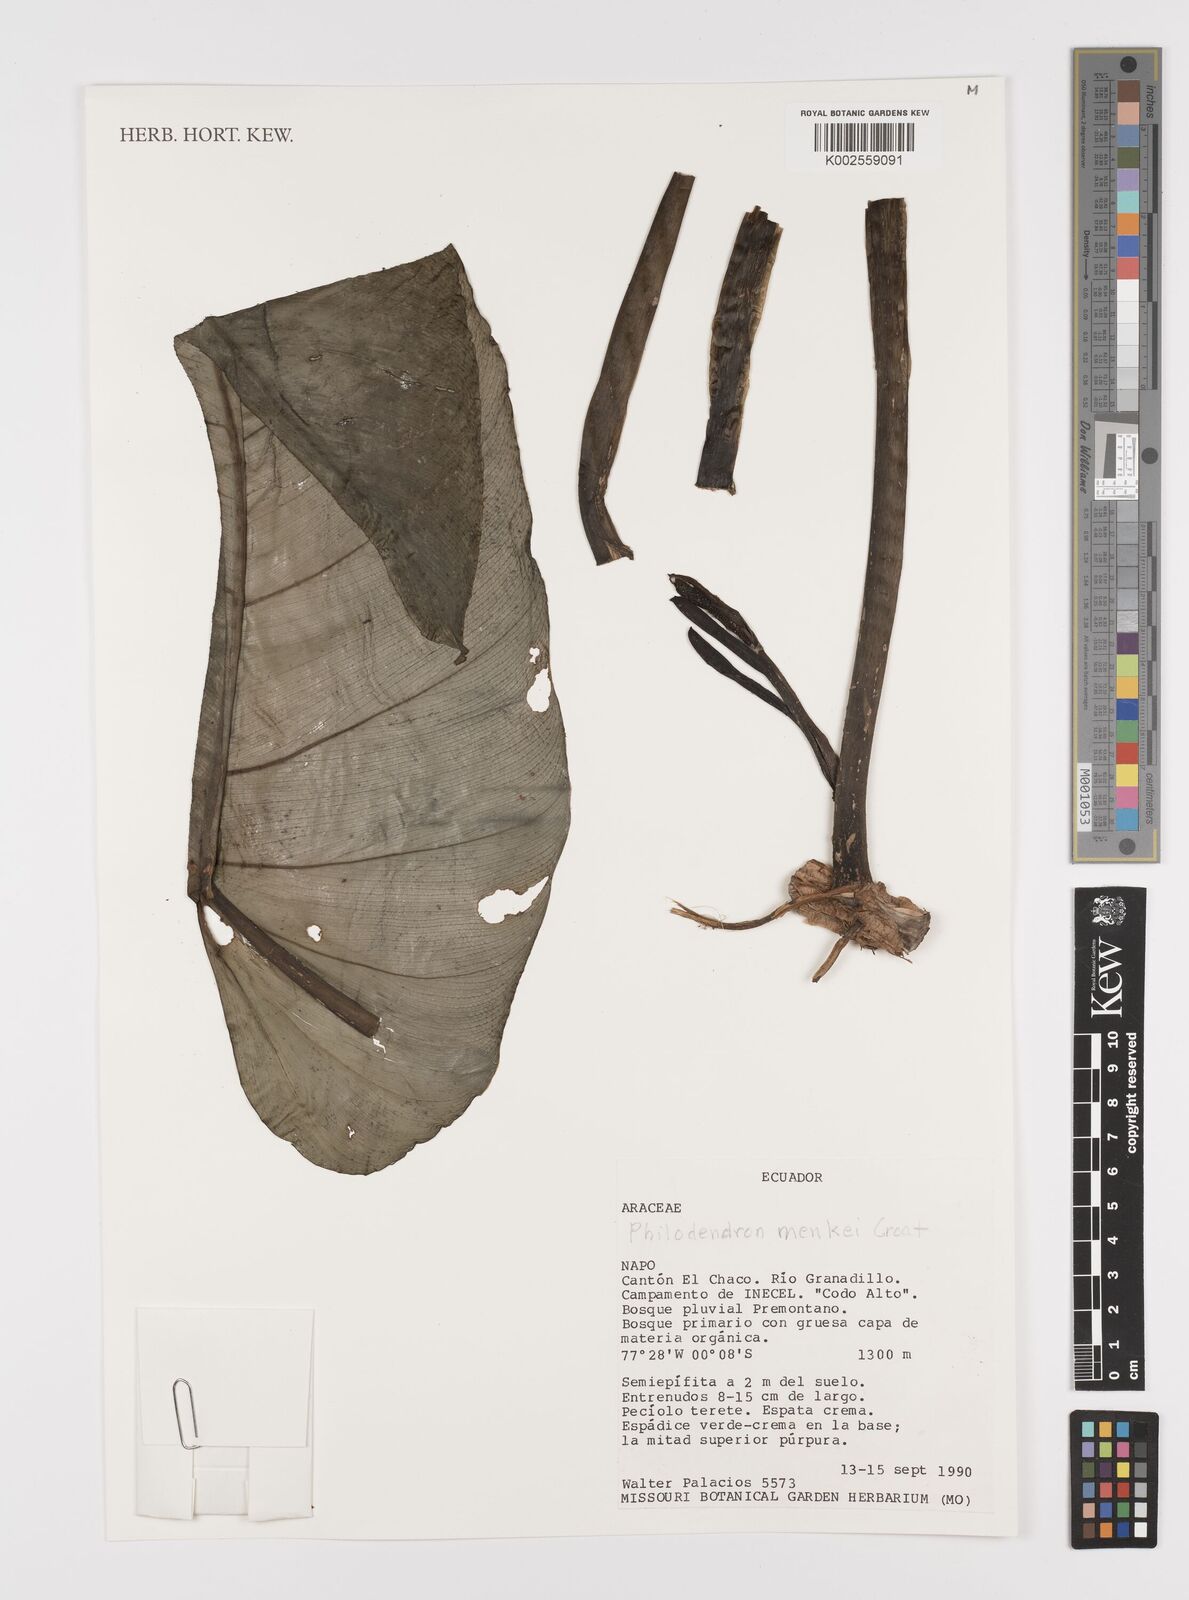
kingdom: Plantae
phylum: Tracheophyta
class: Liliopsida
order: Alismatales
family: Araceae
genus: Philodendron
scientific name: Philodendron
